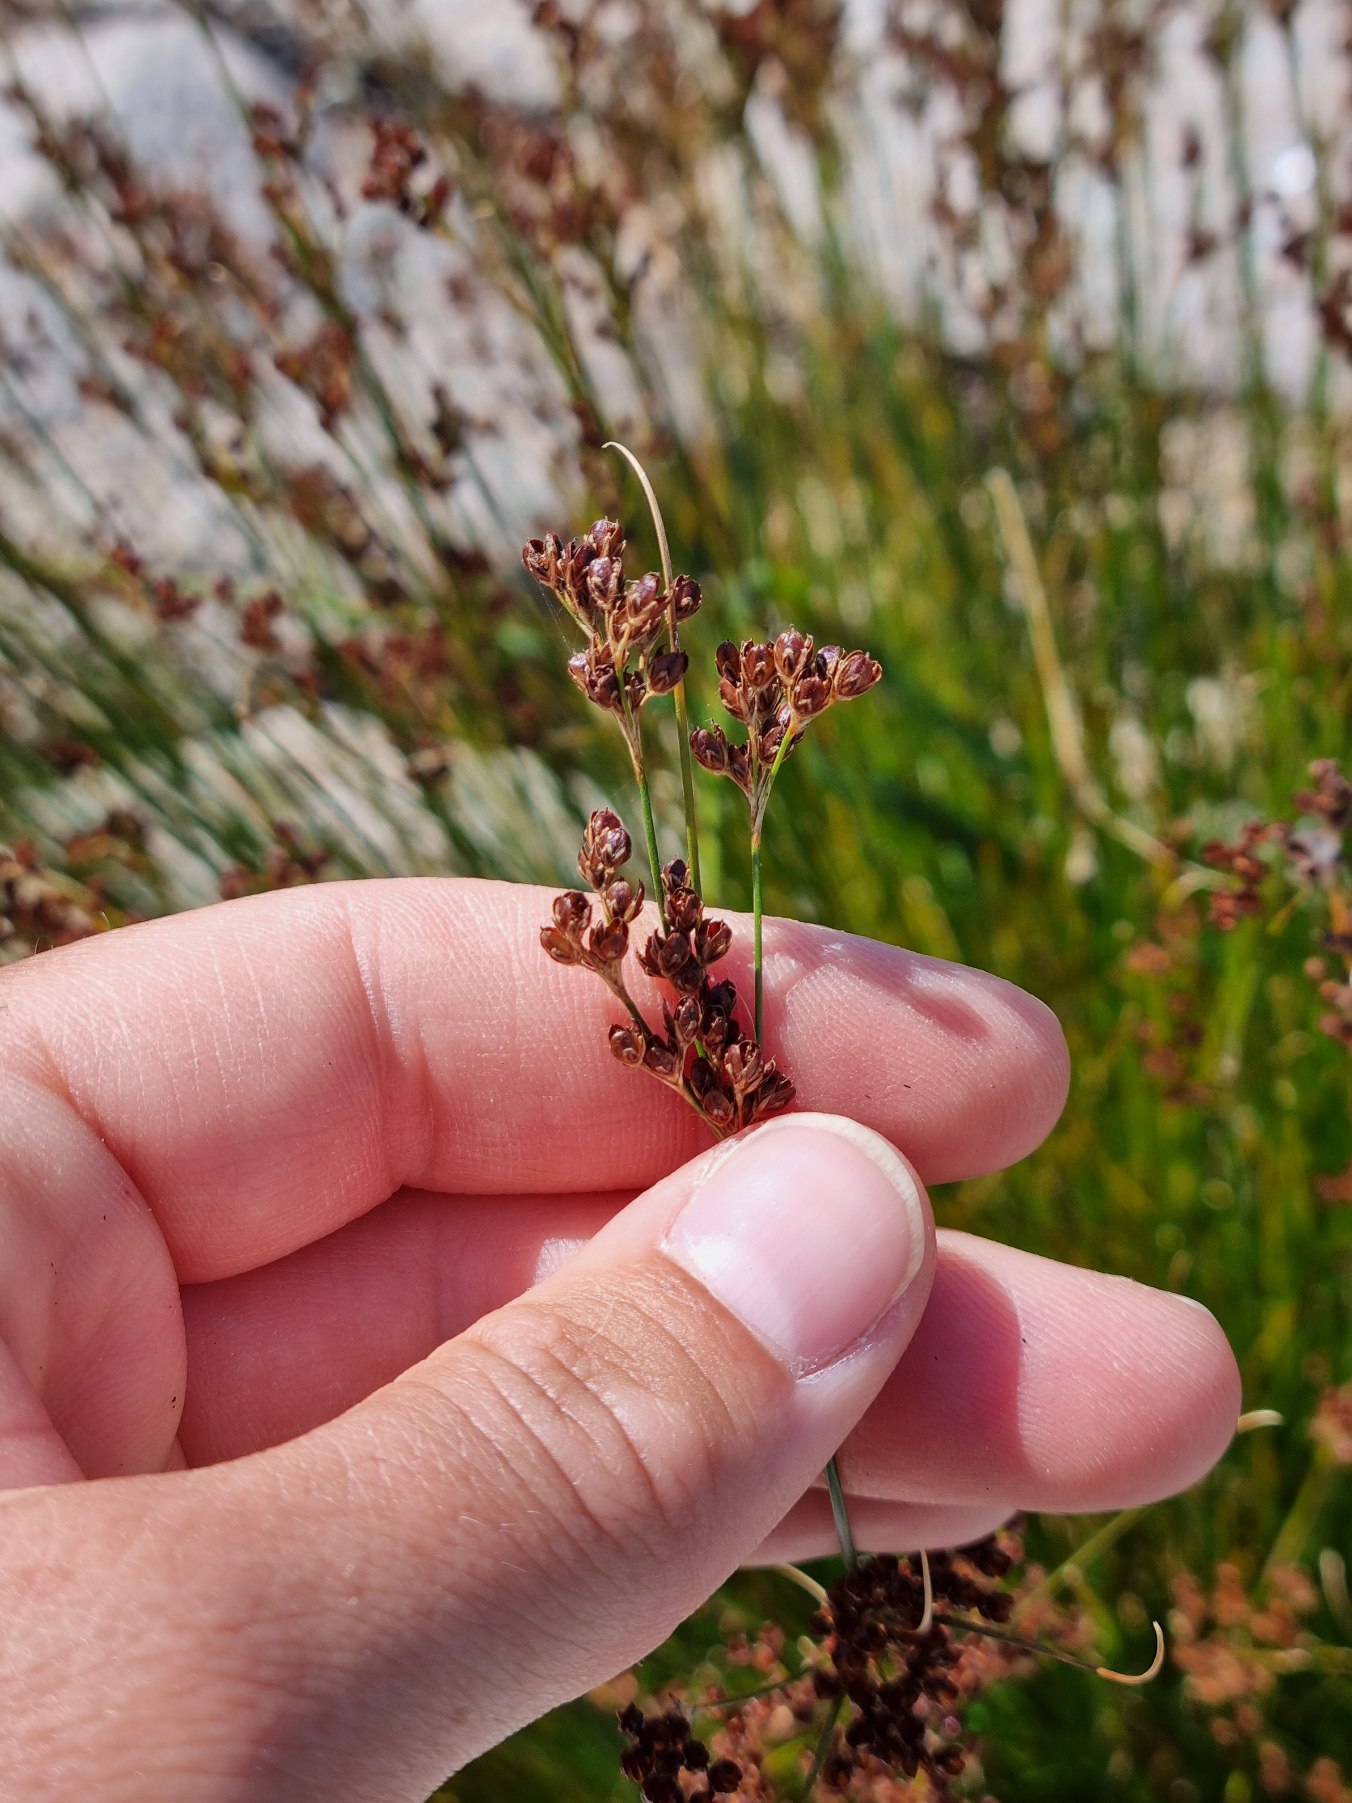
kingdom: Plantae
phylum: Tracheophyta
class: Liliopsida
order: Poales
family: Juncaceae
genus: Juncus
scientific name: Juncus compressus
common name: Fladstrået siv
